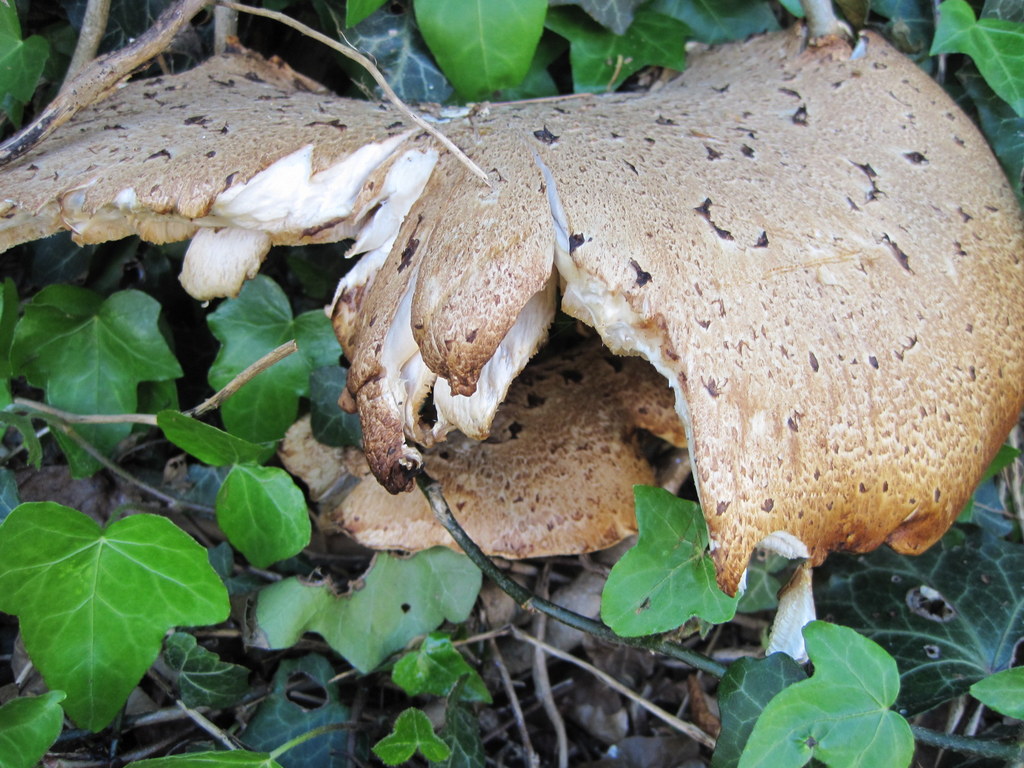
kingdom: Fungi
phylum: Basidiomycota
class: Agaricomycetes
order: Polyporales
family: Polyporaceae
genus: Cerioporus
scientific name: Cerioporus squamosus
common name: skællet stilkporesvamp
